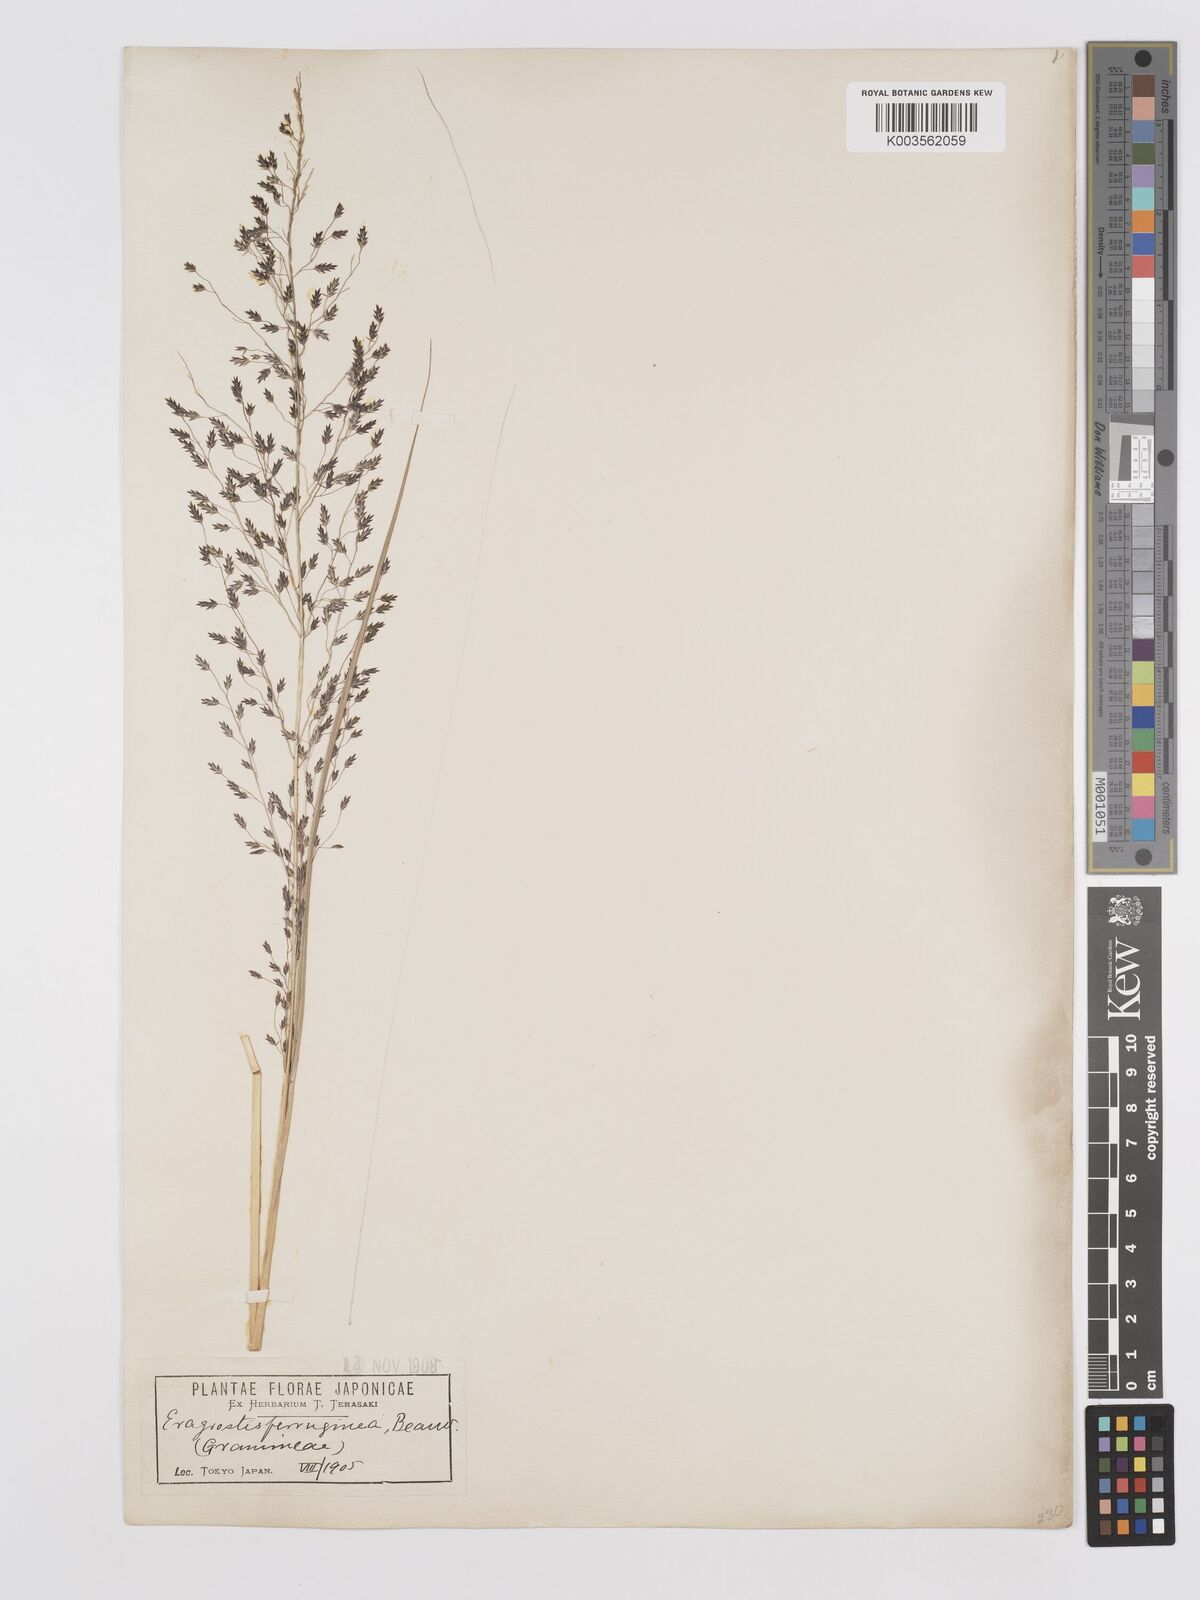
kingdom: Plantae
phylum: Tracheophyta
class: Liliopsida
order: Poales
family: Poaceae
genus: Eragrostis
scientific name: Eragrostis ferruginea
